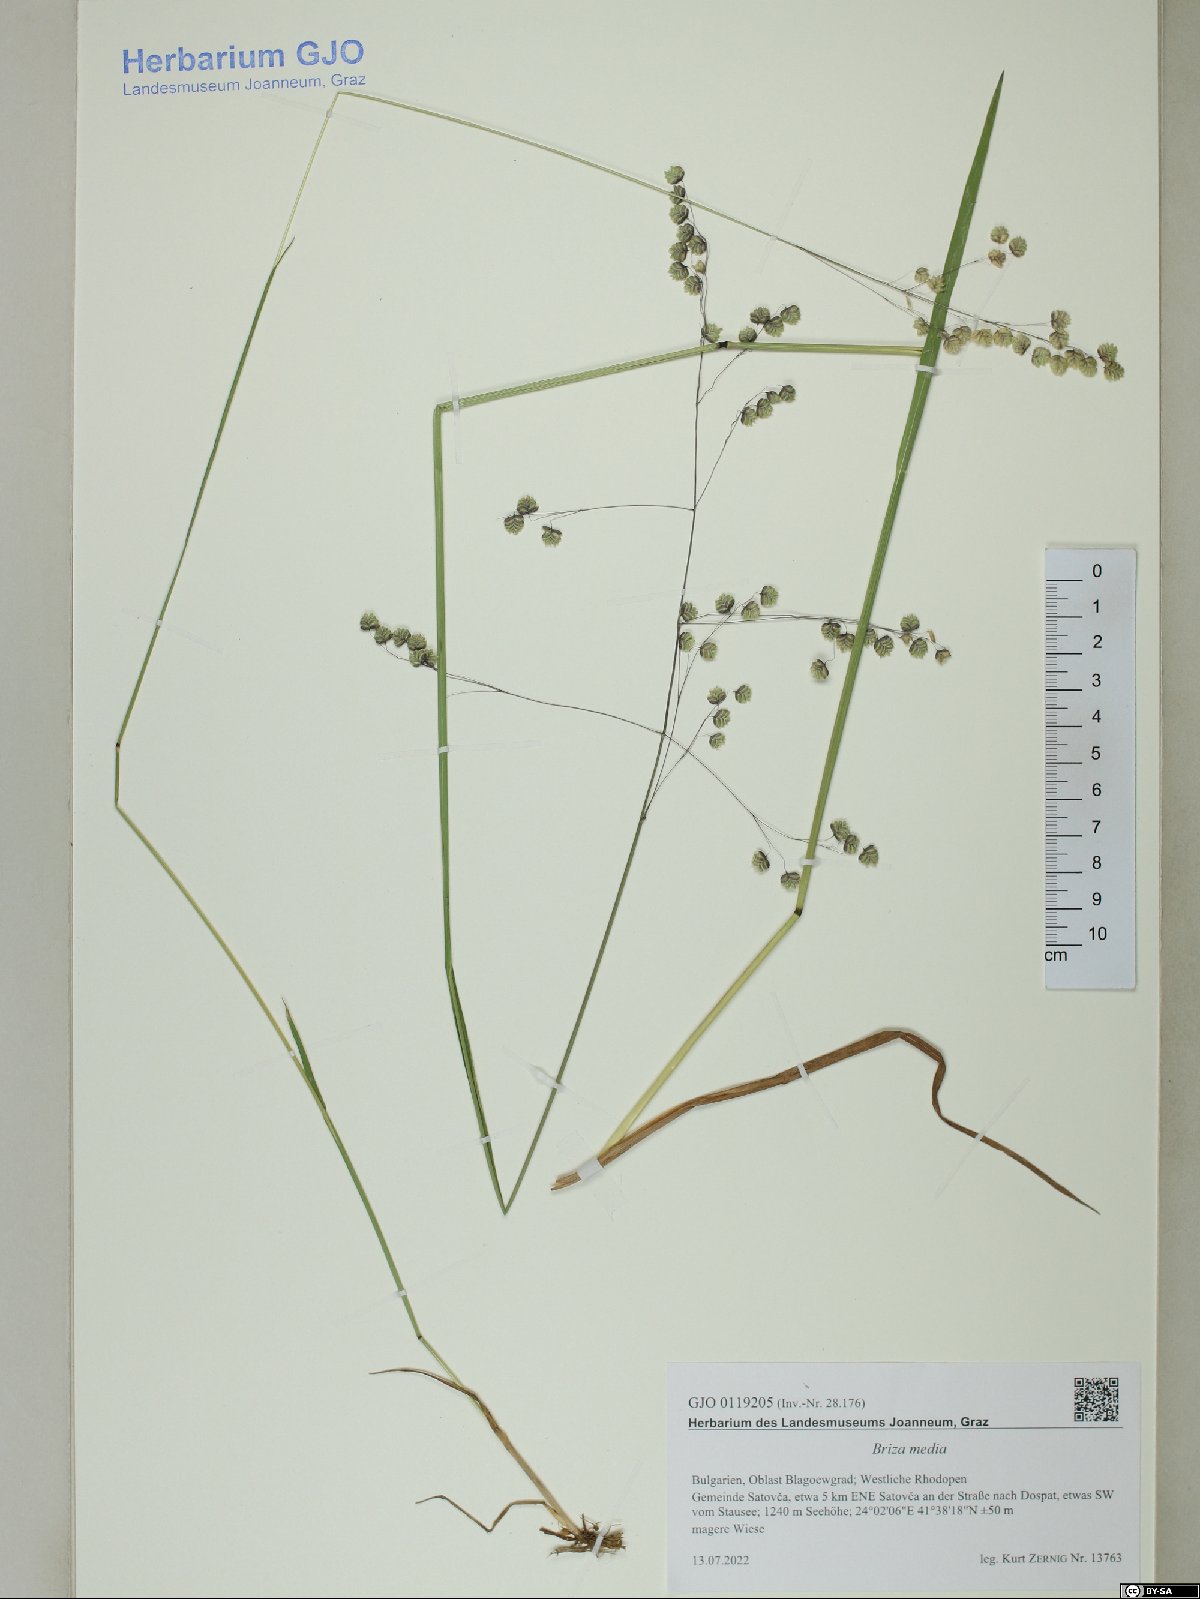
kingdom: Plantae
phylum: Tracheophyta
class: Liliopsida
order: Poales
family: Poaceae
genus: Briza
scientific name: Briza media
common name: Quaking grass
